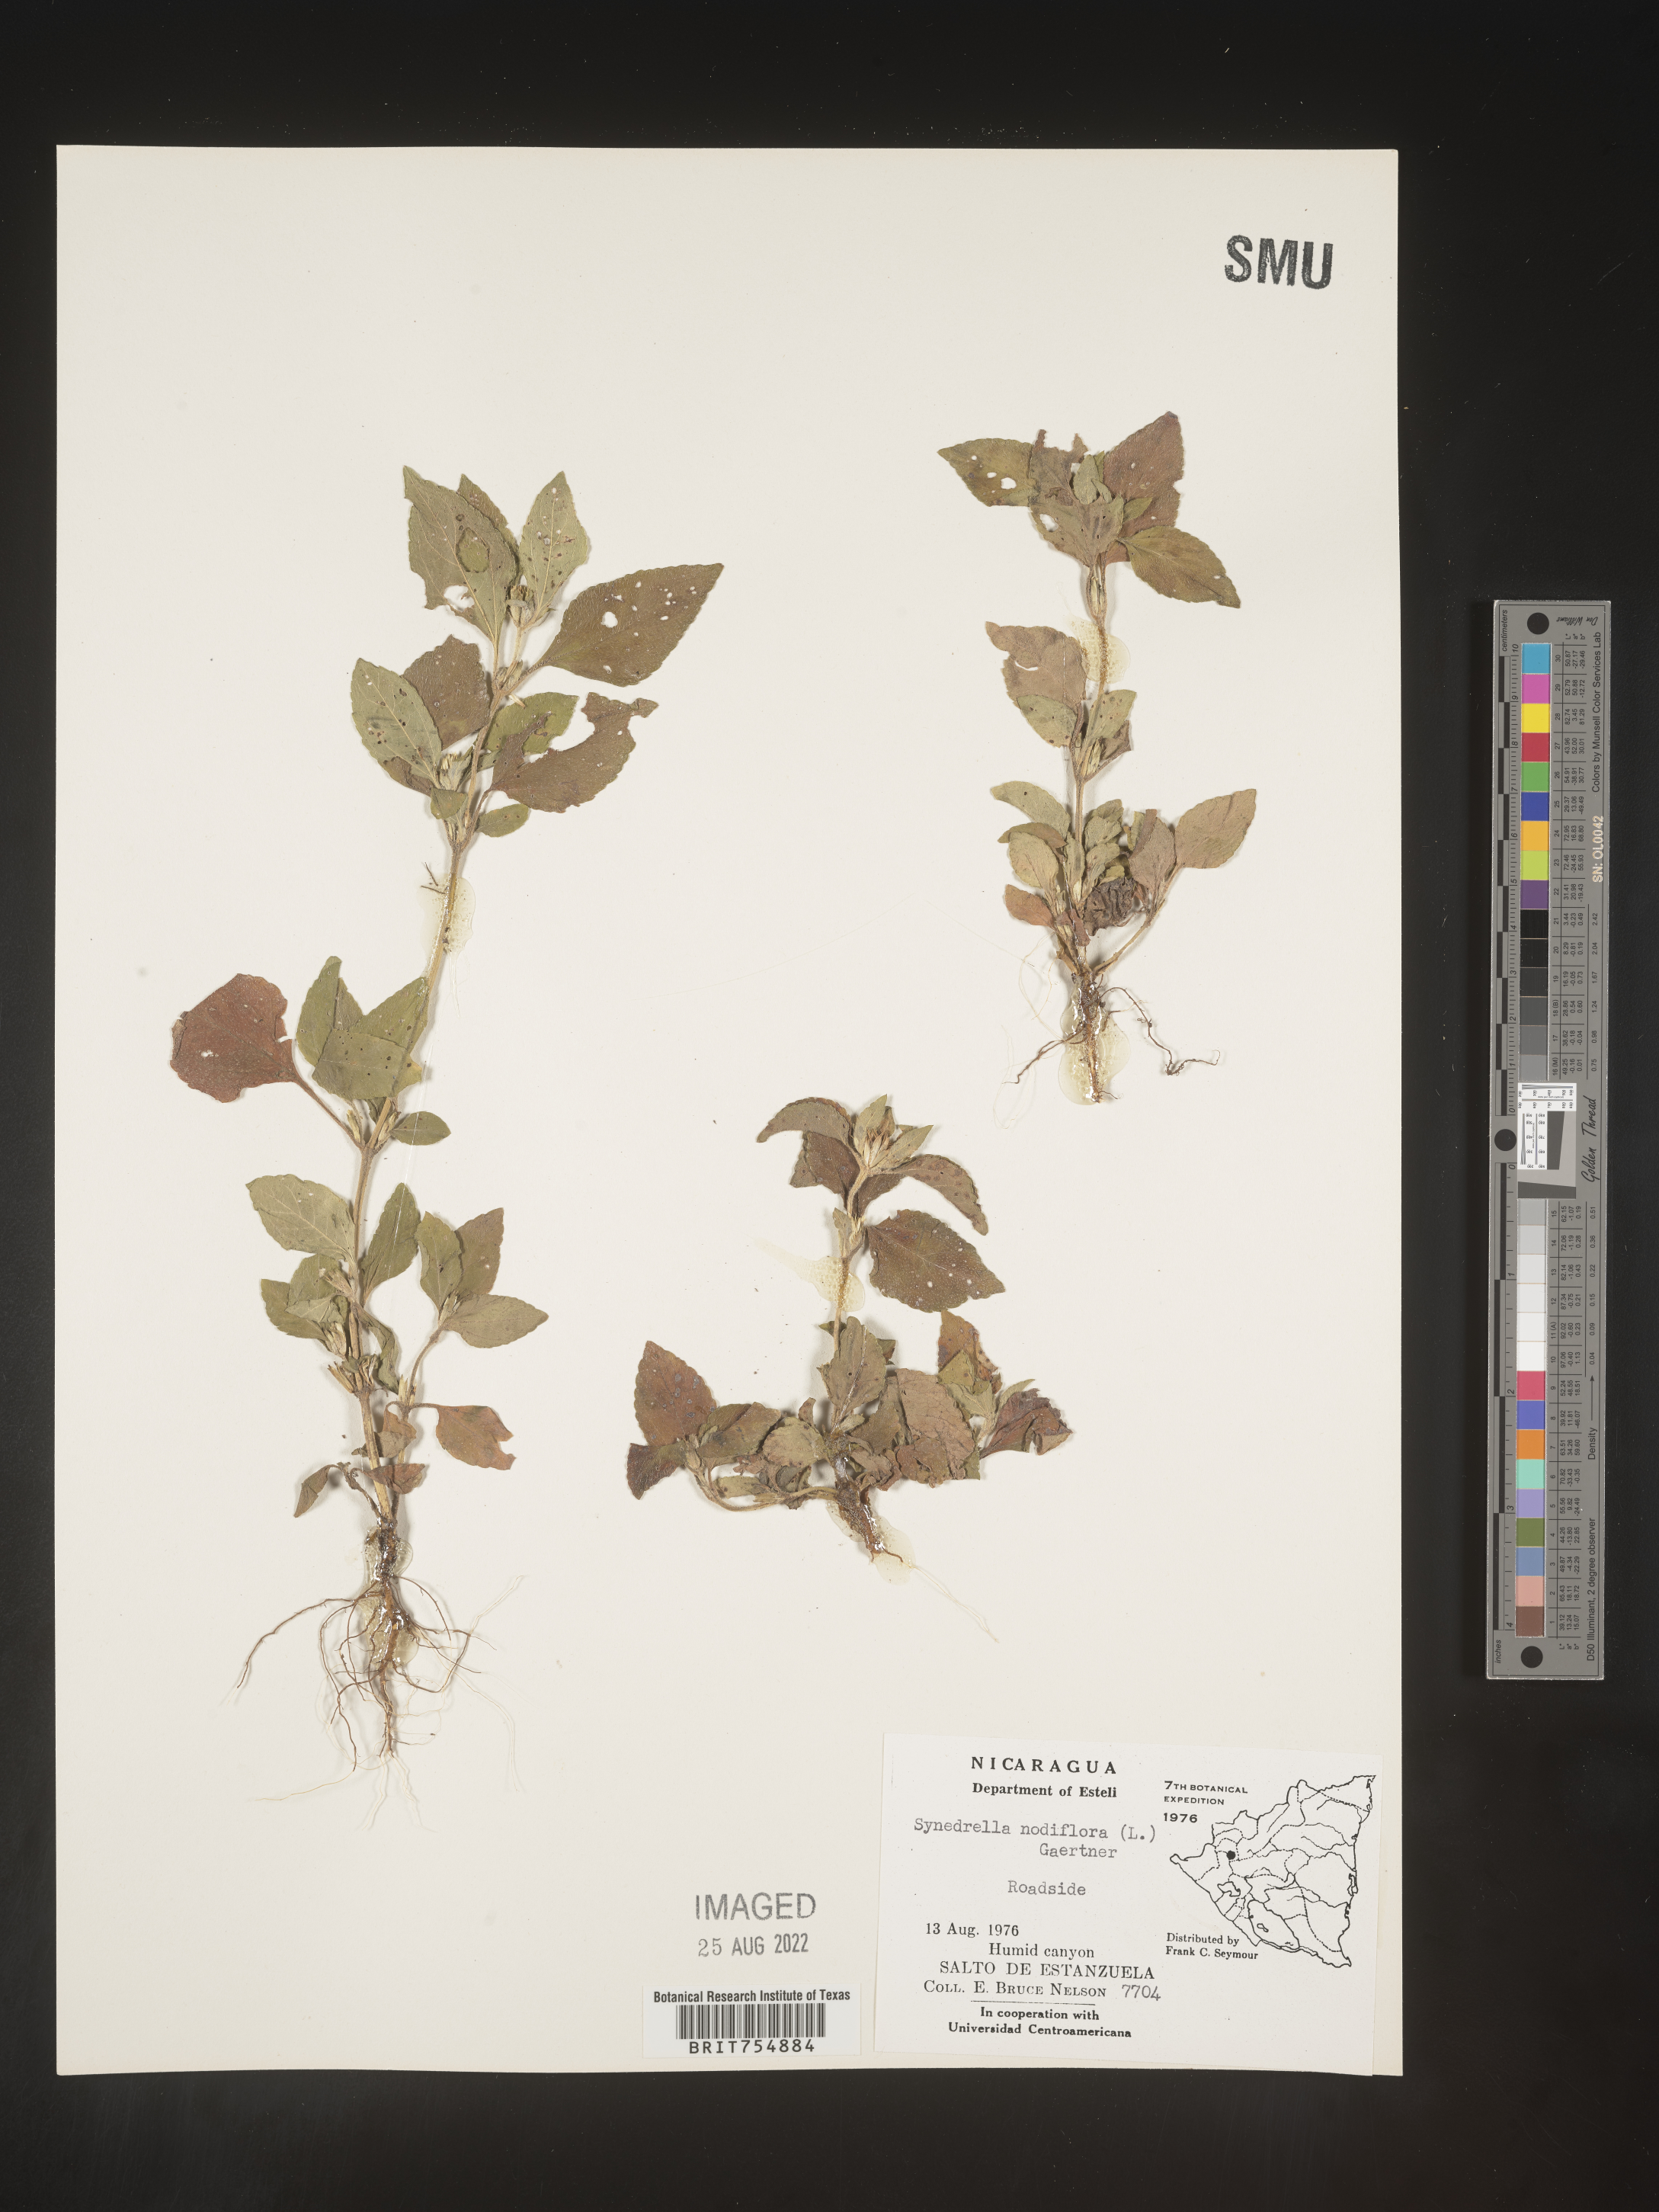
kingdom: Plantae
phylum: Tracheophyta
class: Magnoliopsida
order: Asterales
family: Asteraceae
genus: Synedrella
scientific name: Synedrella
